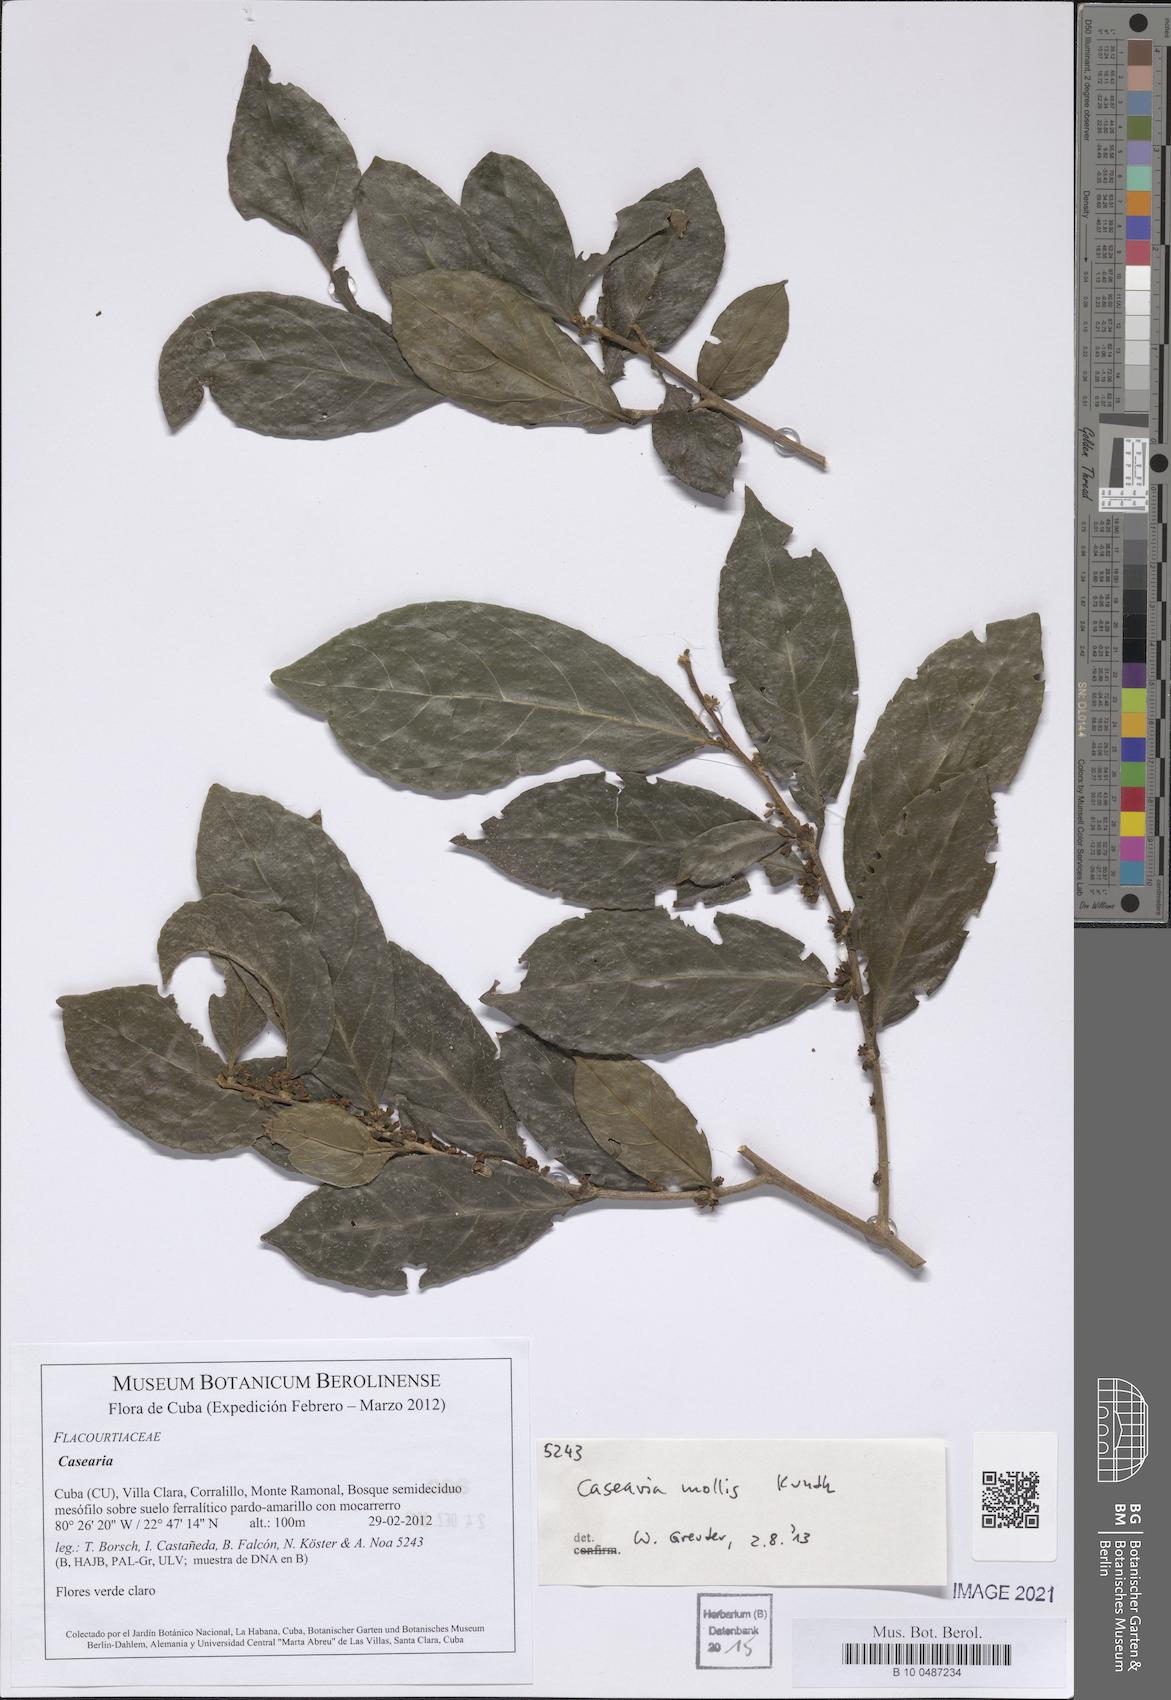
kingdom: Plantae
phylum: Tracheophyta
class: Magnoliopsida
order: Malpighiales
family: Salicaceae
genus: Casearia
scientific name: Casearia mollis
